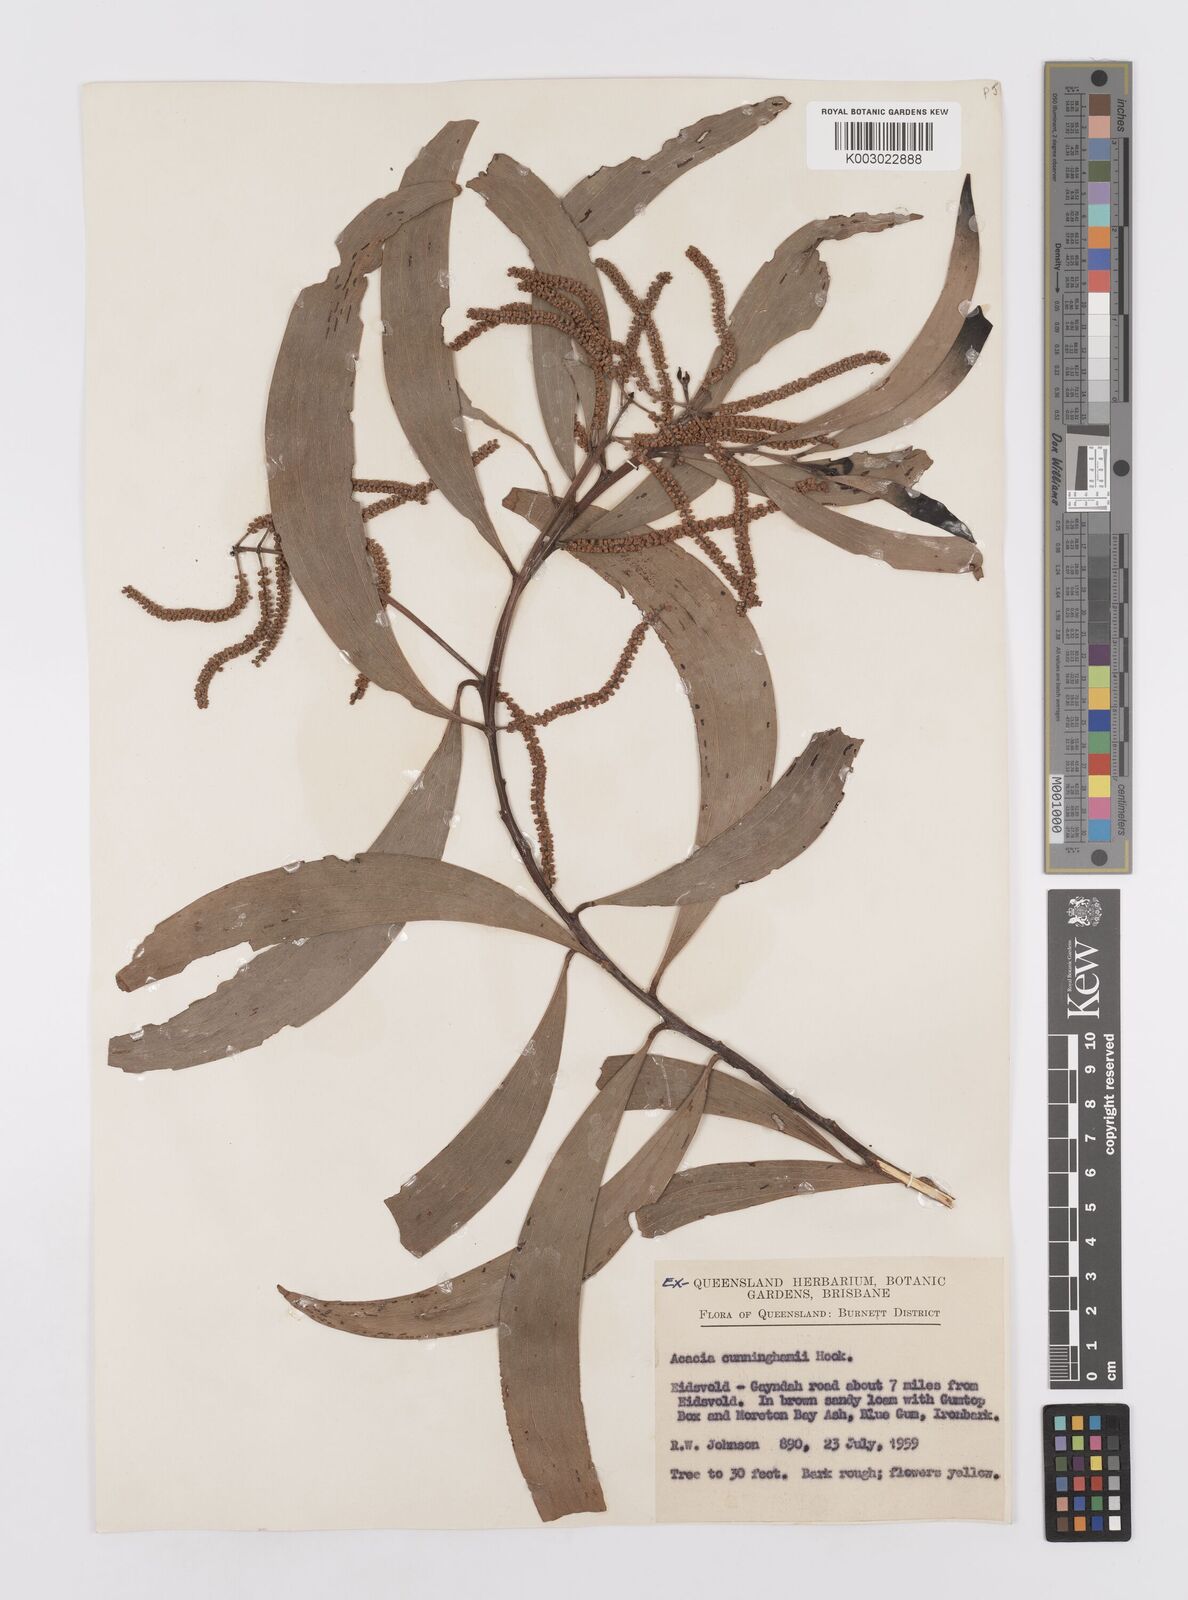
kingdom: Plantae
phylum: Tracheophyta
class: Magnoliopsida
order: Fabales
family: Fabaceae
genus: Acacia
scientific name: Acacia longispicata
